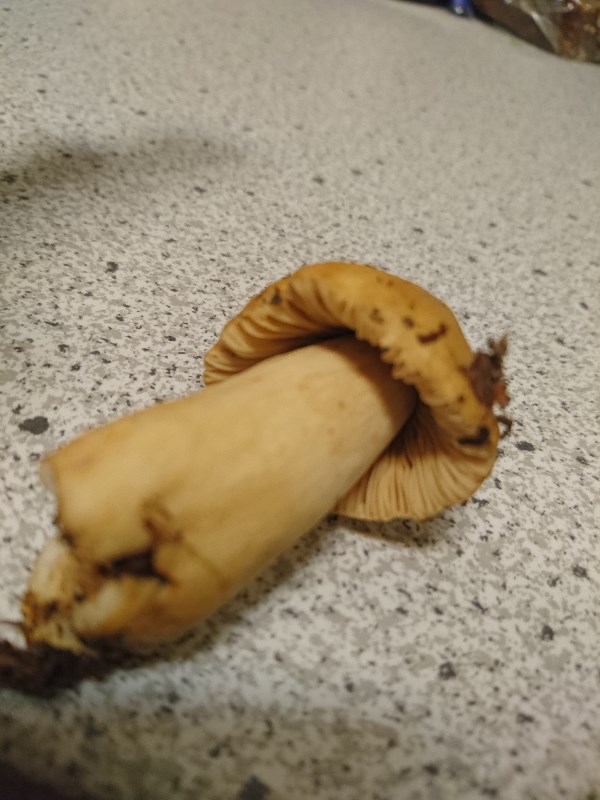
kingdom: Fungi
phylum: Basidiomycota
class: Agaricomycetes
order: Russulales
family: Russulaceae
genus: Russula
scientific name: Russula fellea
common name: galde-skørhat
